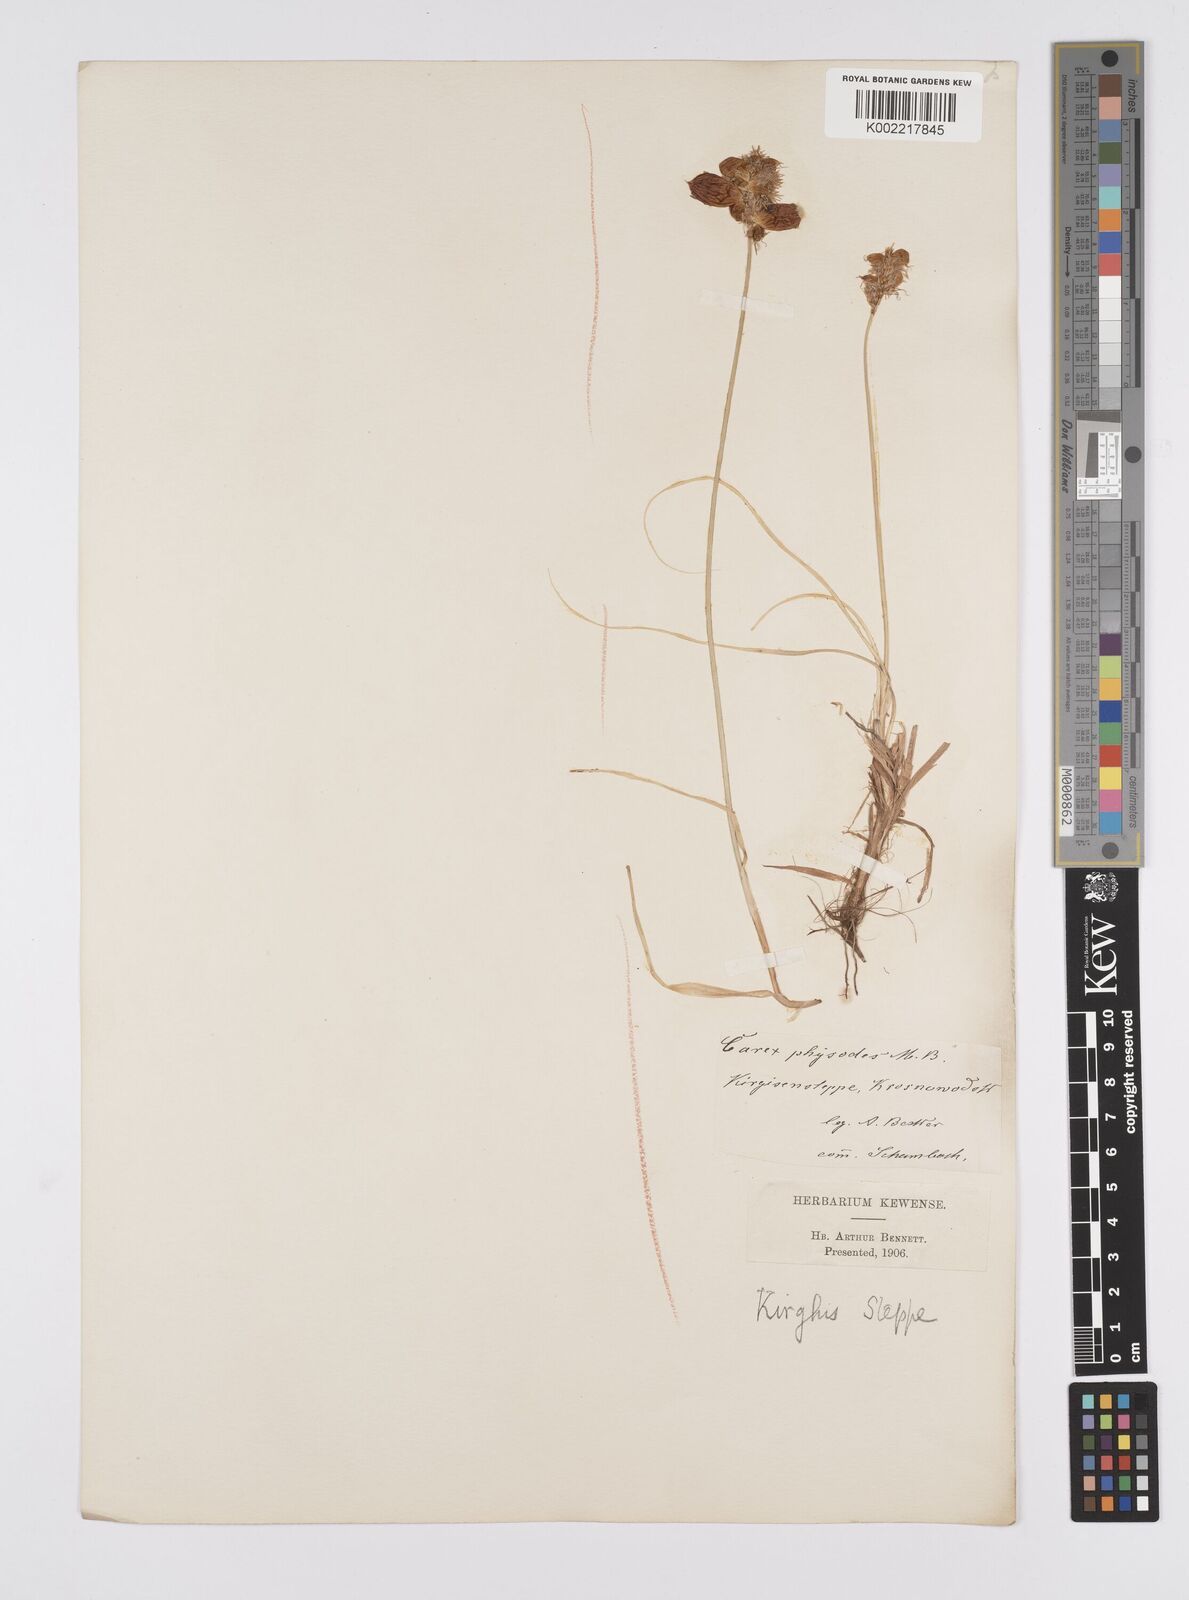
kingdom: Plantae
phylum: Tracheophyta
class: Liliopsida
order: Poales
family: Cyperaceae
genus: Carex
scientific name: Carex physodes
